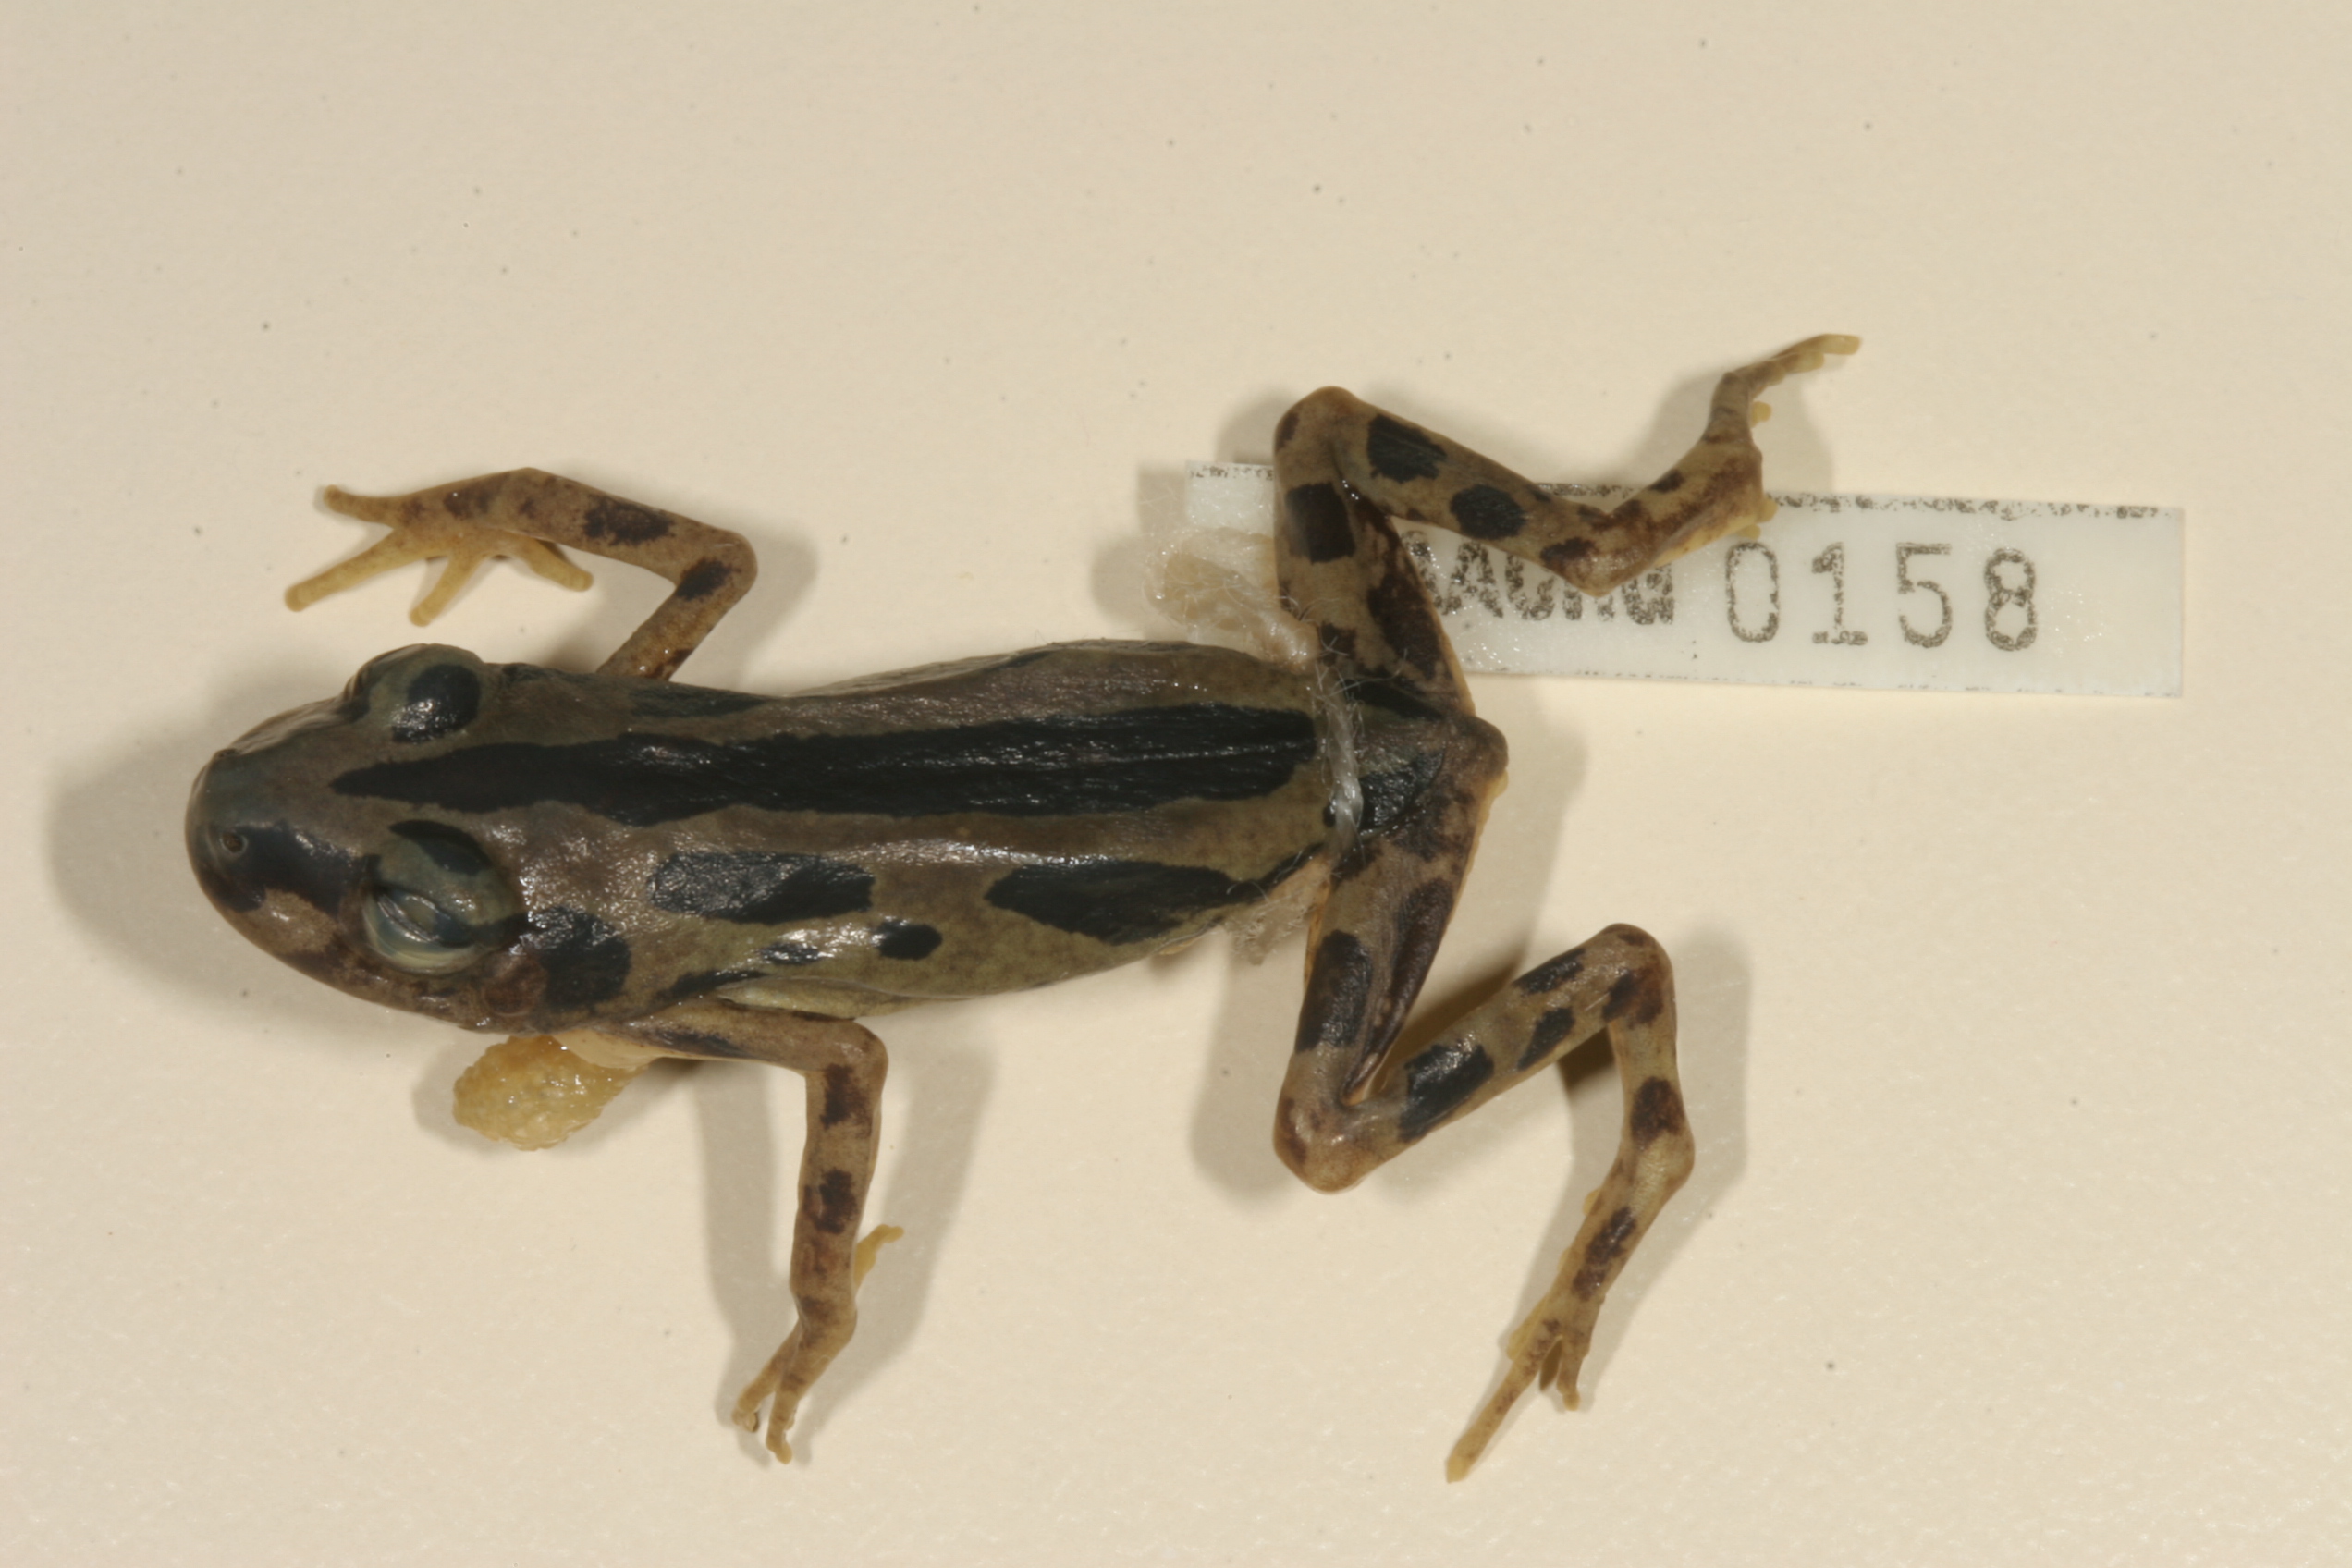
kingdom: Animalia
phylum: Chordata
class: Amphibia
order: Anura
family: Hyperoliidae
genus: Kassina
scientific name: Kassina senegalensis
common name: Senegal land frog
